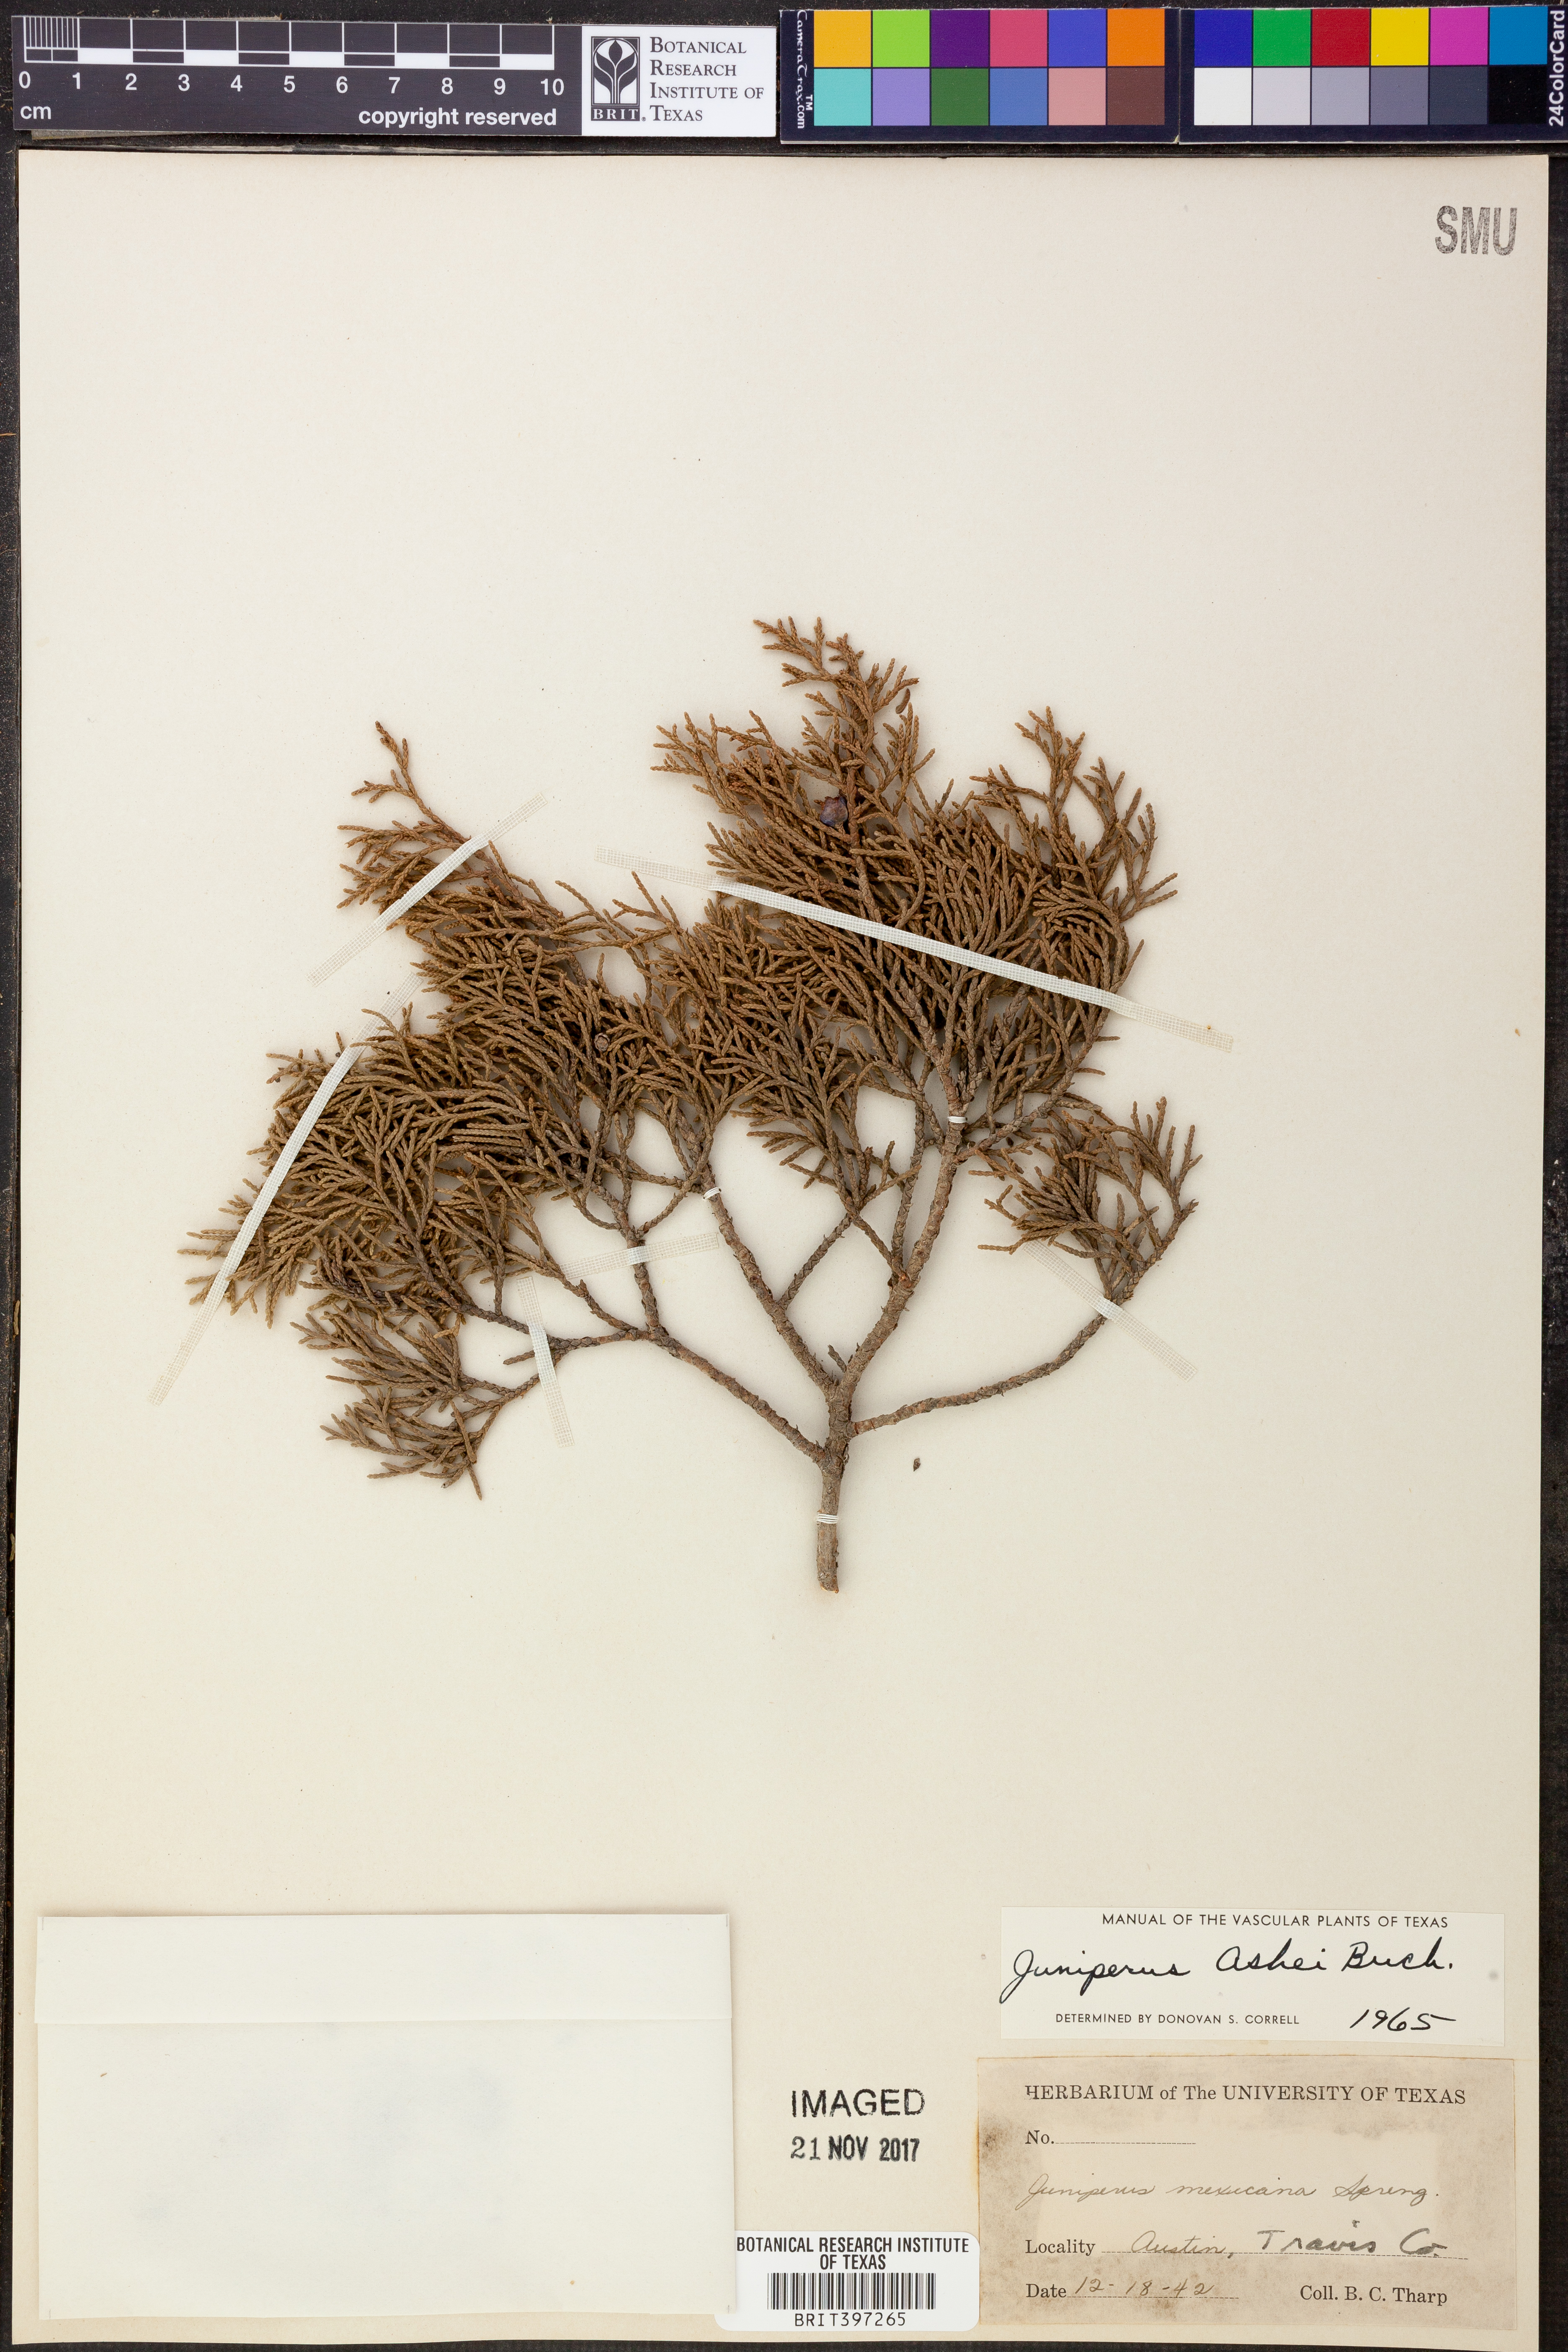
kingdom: Plantae
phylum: Tracheophyta
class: Pinopsida
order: Pinales
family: Cupressaceae
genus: Juniperus
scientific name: Juniperus ashei
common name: Mexican juniper
